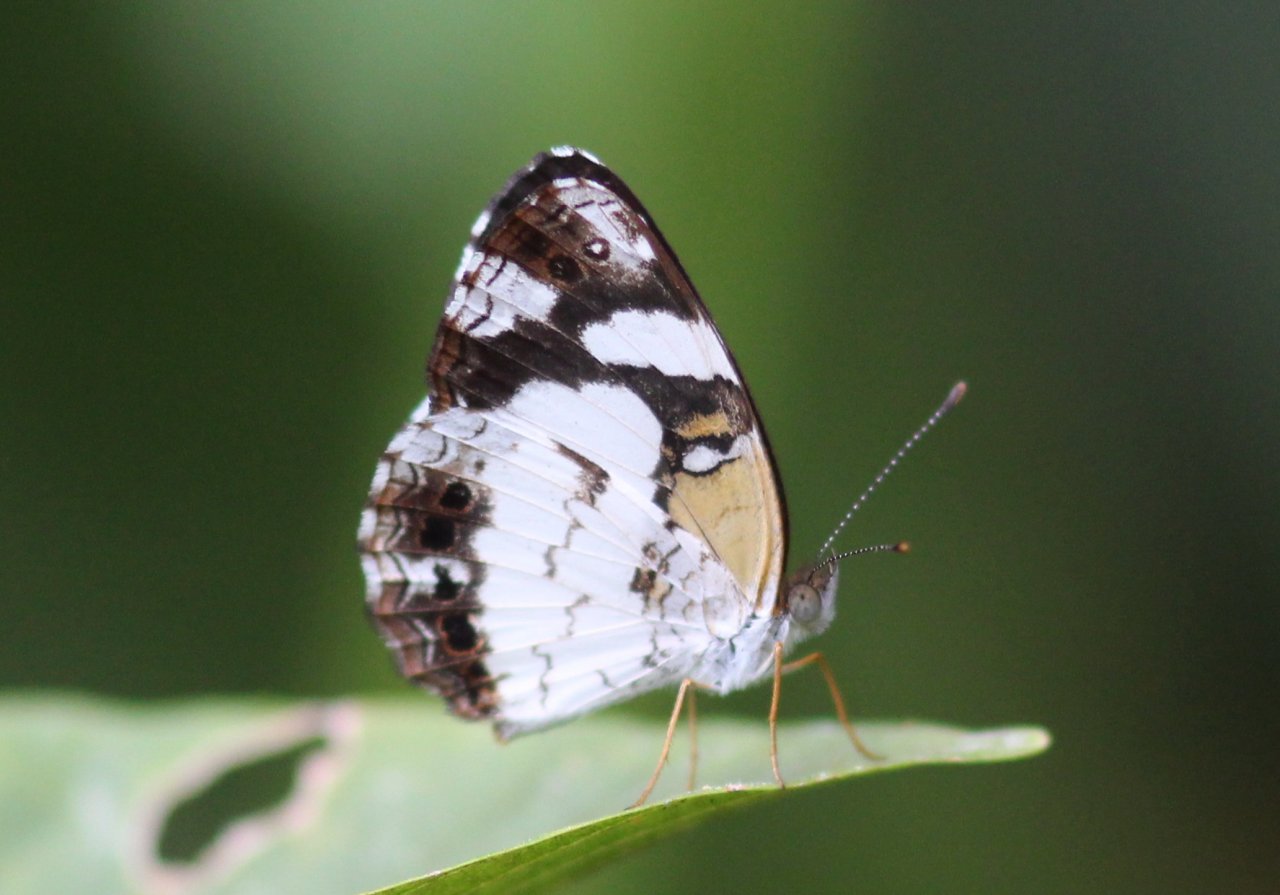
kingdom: Animalia
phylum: Arthropoda
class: Insecta
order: Lepidoptera
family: Nymphalidae
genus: Janatella
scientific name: Janatella leucodesma
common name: Whitened Crescent
